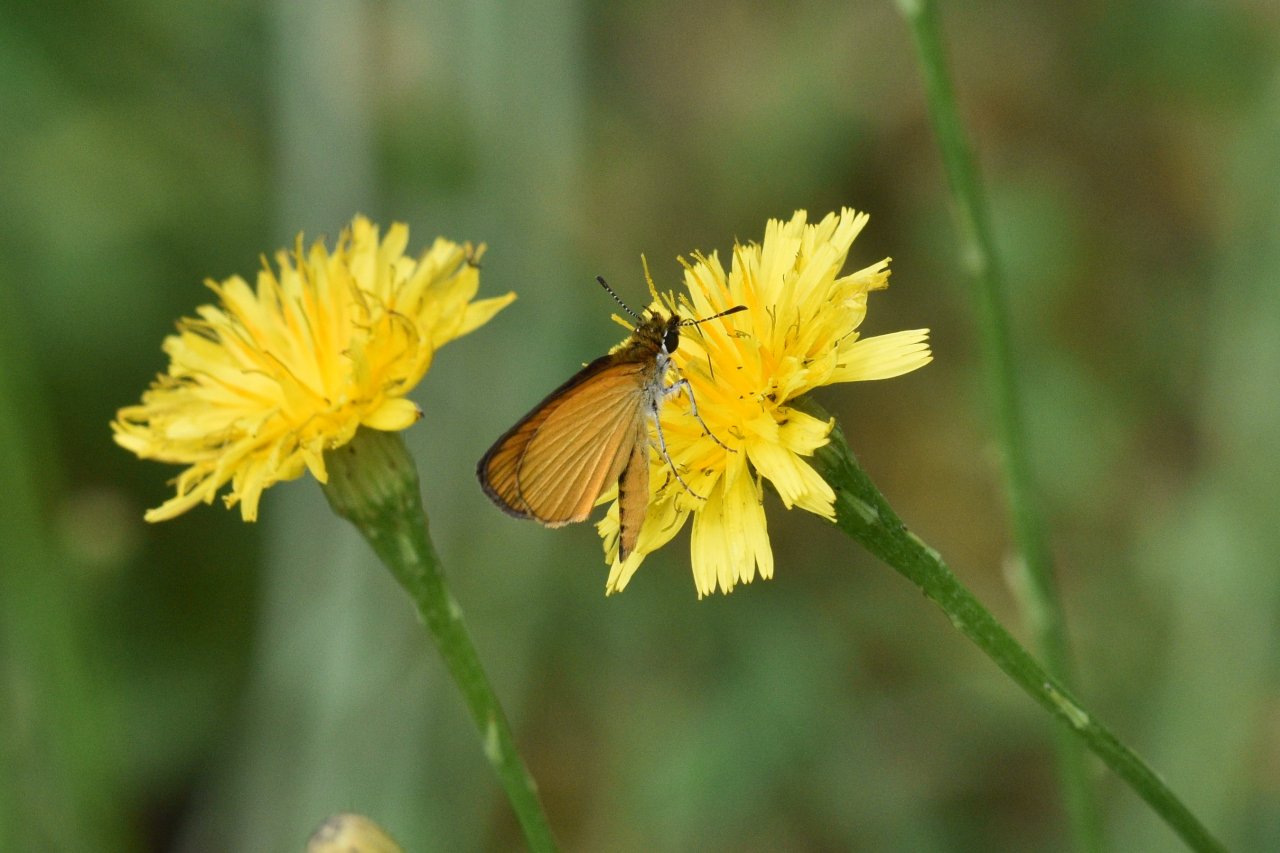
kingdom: Animalia
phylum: Arthropoda
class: Insecta
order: Lepidoptera
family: Hesperiidae
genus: Ancyloxypha
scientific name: Ancyloxypha numitor
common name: Least Skipper
